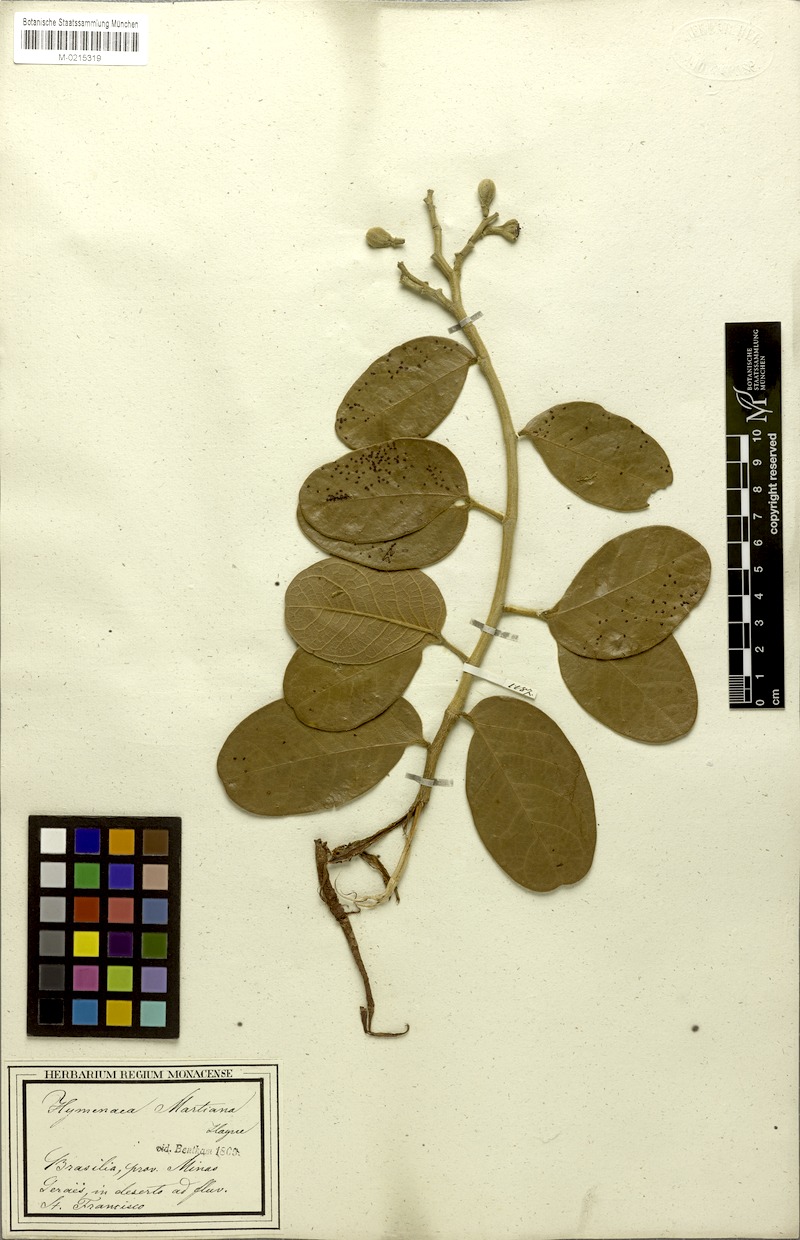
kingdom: Plantae
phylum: Tracheophyta
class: Magnoliopsida
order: Fabales
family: Fabaceae
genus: Hymenaea
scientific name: Hymenaea martiana
